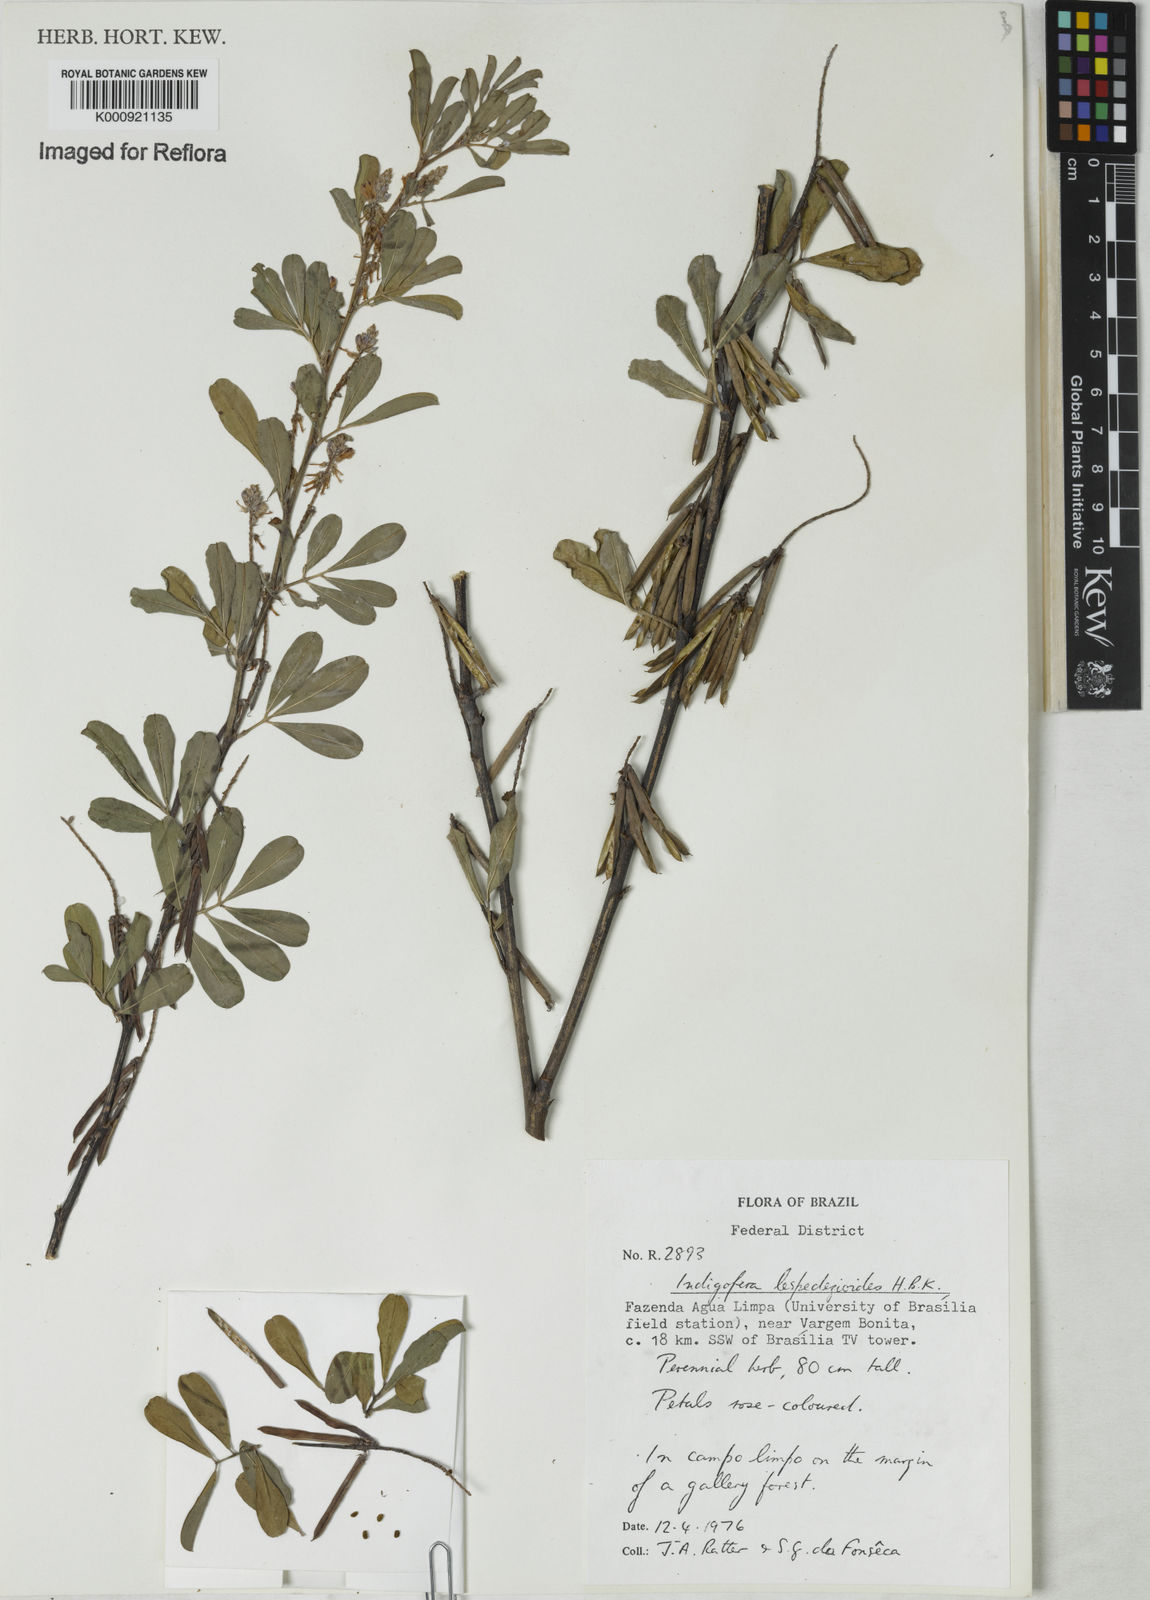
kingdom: Plantae
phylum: Tracheophyta
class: Magnoliopsida
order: Fabales
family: Fabaceae
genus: Indigofera
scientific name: Indigofera lespedezioides
